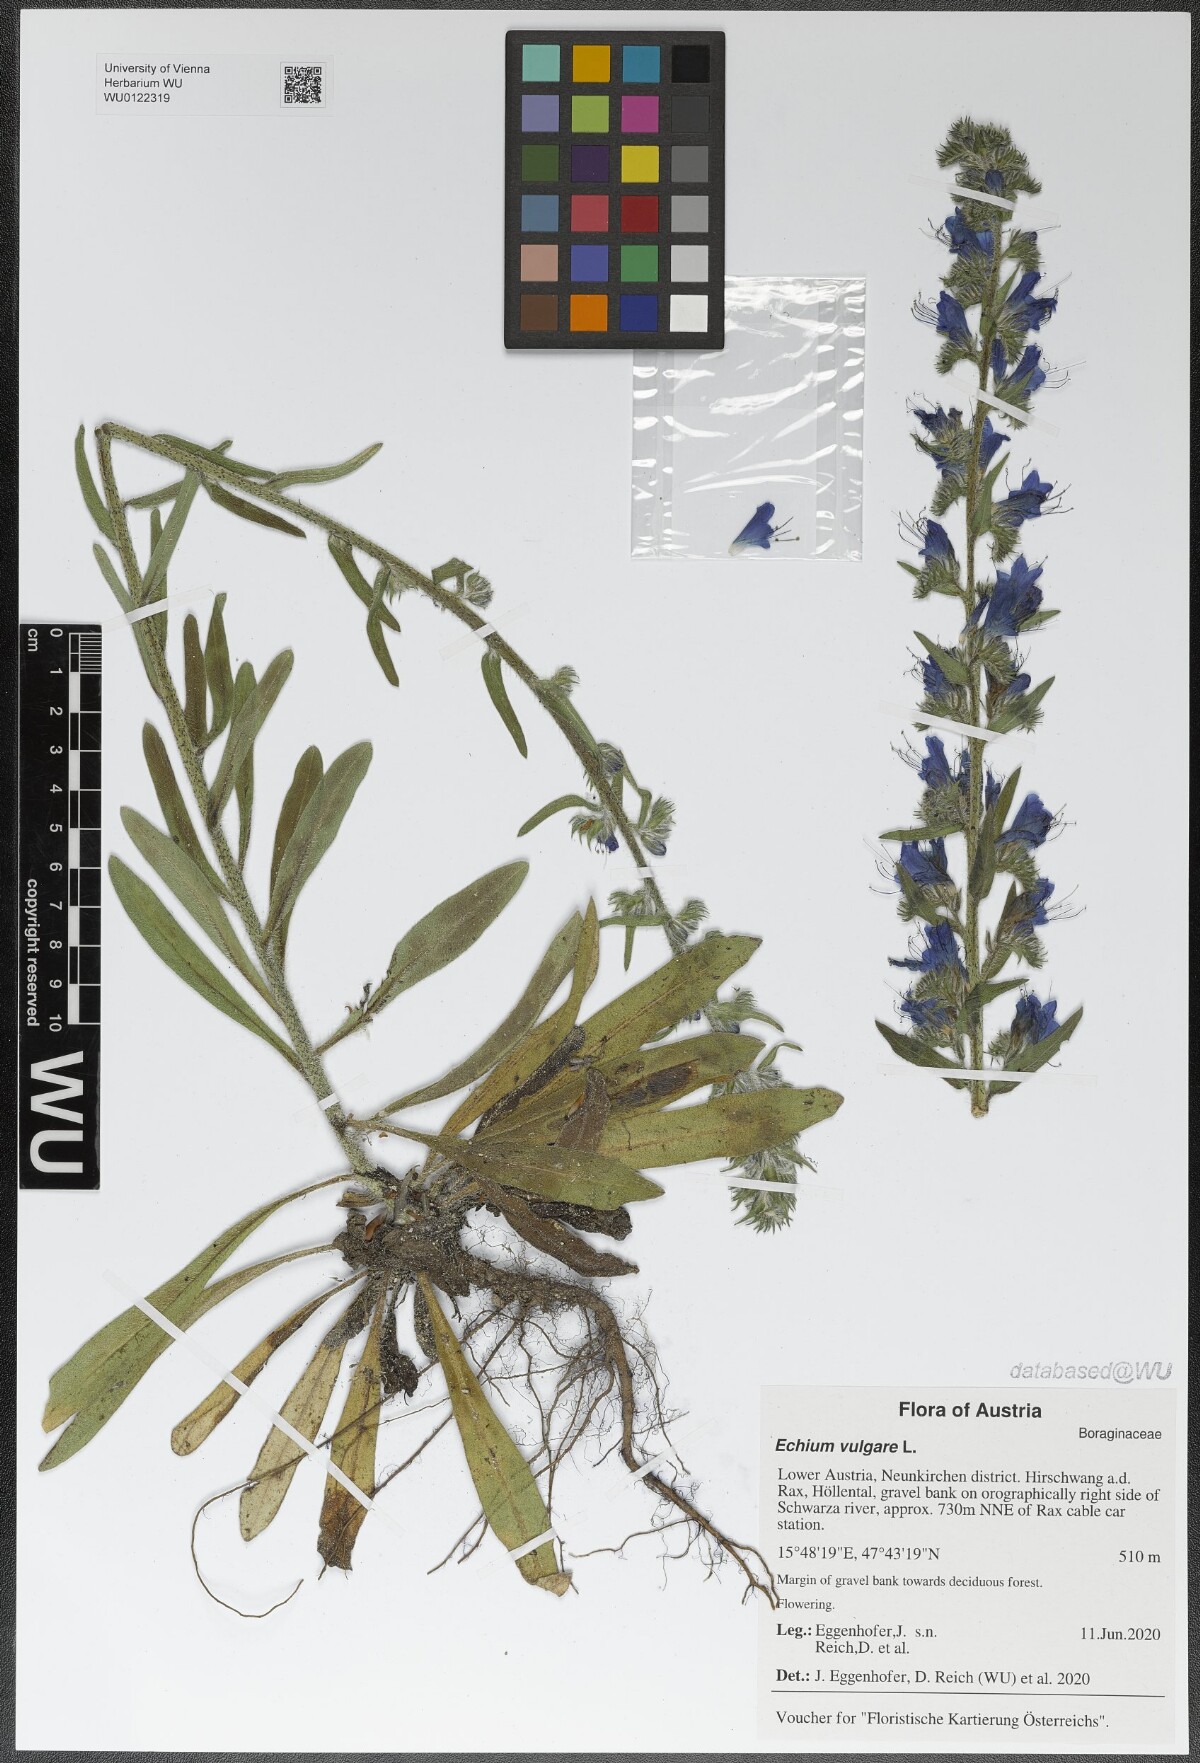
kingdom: Plantae
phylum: Tracheophyta
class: Magnoliopsida
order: Boraginales
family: Boraginaceae
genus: Echium
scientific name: Echium vulgare
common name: Common viper's bugloss
